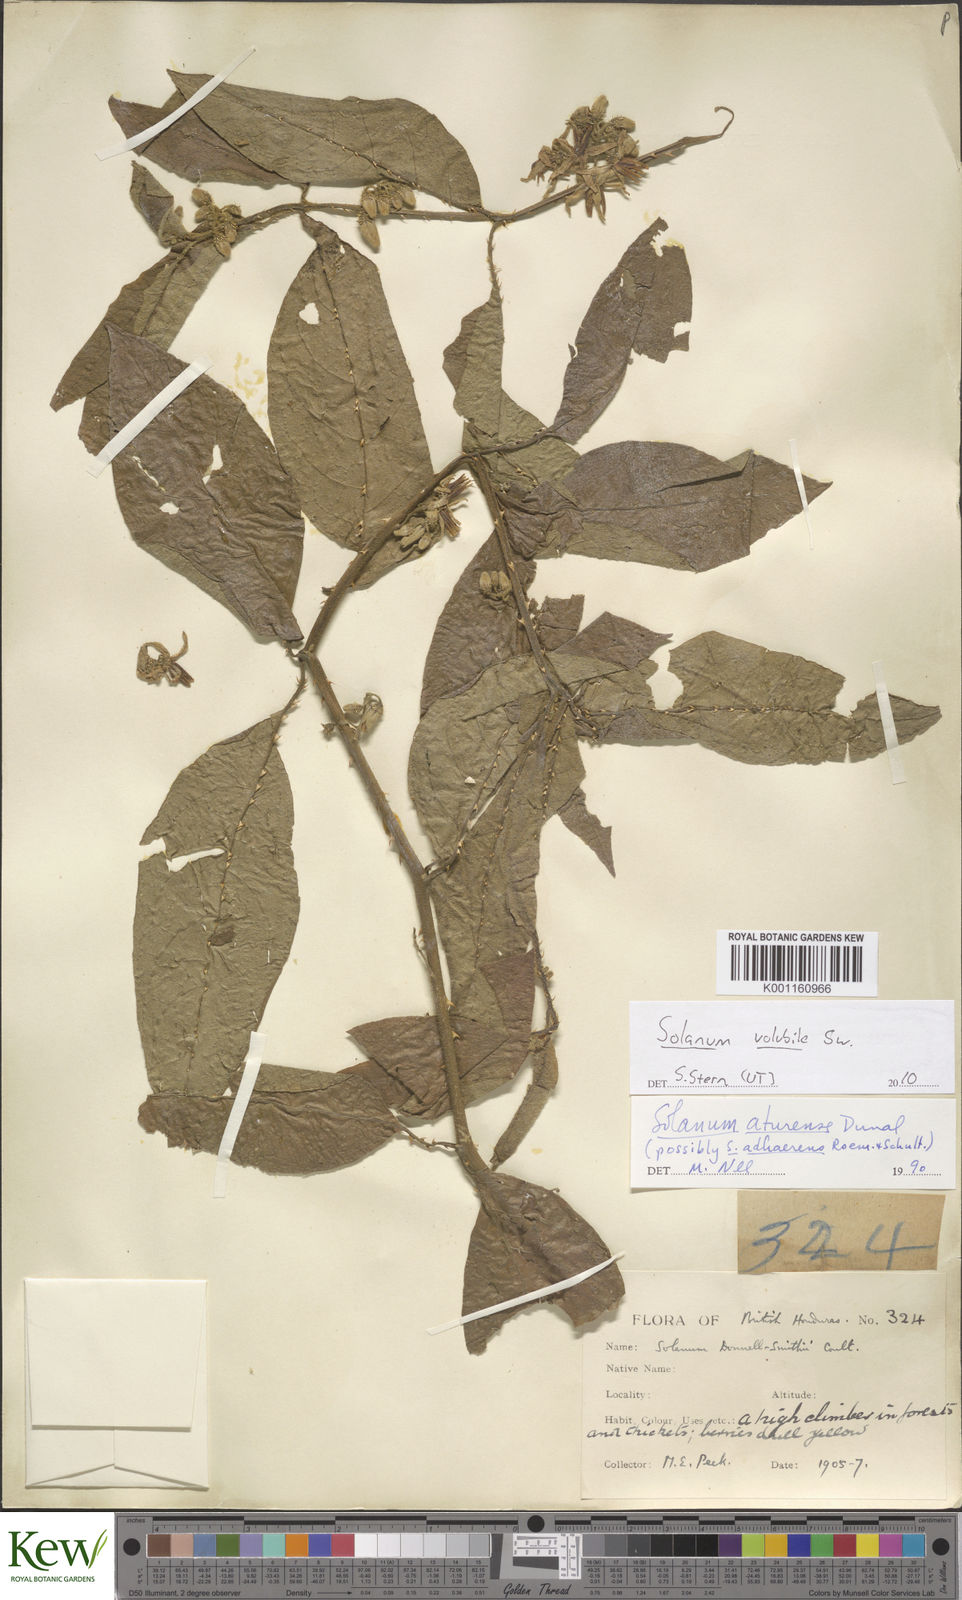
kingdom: Plantae
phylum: Tracheophyta
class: Magnoliopsida
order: Solanales
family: Solanaceae
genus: Solanum
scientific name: Solanum volubile
